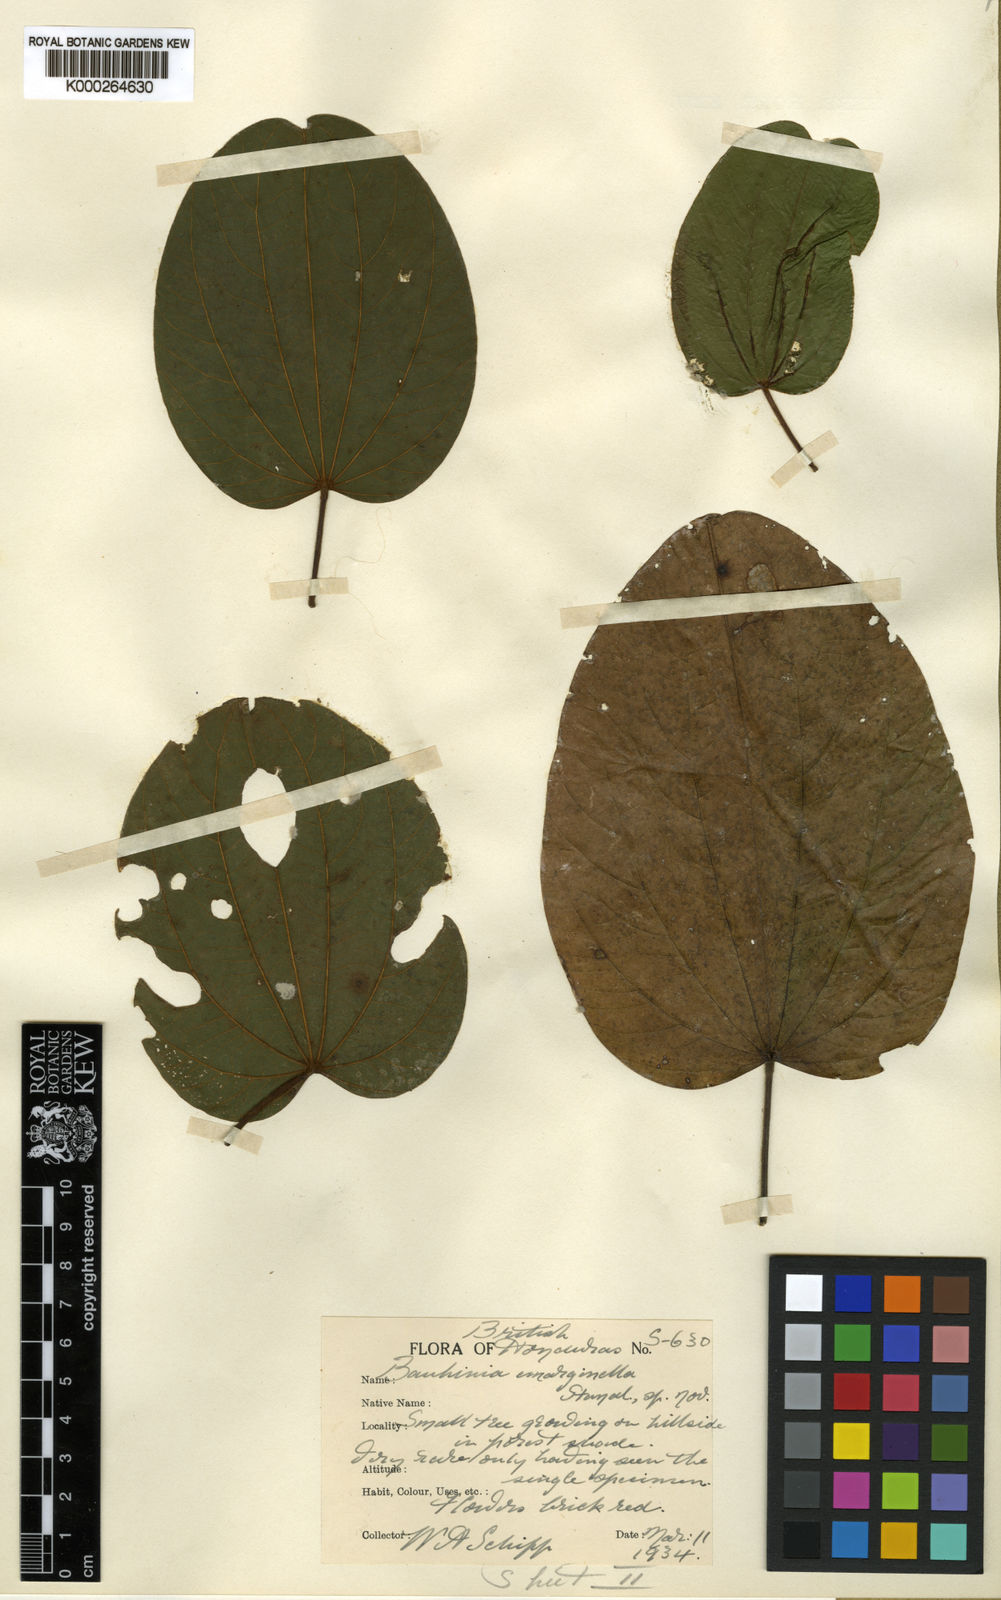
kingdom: Plantae
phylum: Tracheophyta
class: Magnoliopsida
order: Fabales
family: Fabaceae
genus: Bauhinia
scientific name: Bauhinia rubeleruziana
